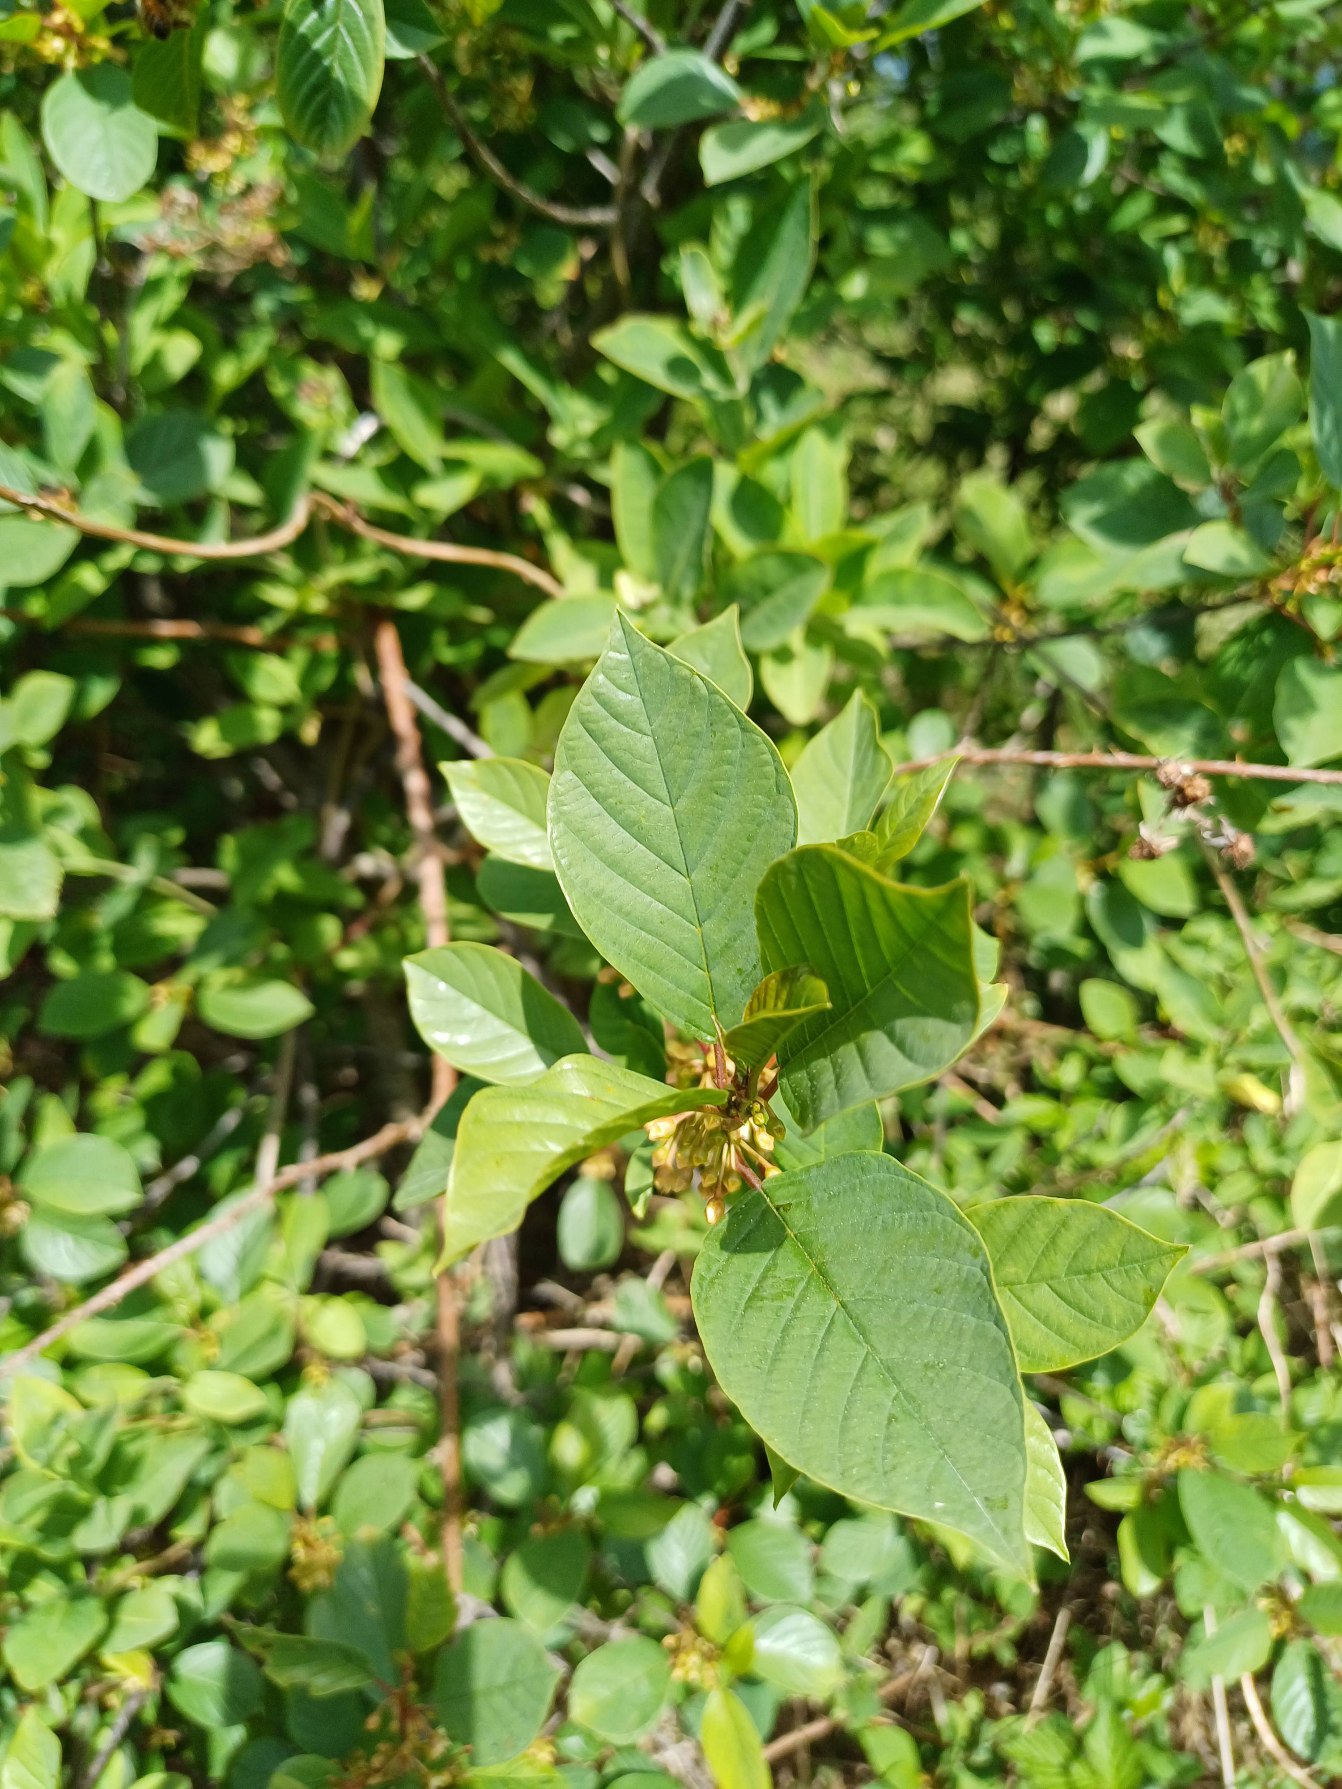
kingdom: Plantae
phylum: Tracheophyta
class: Magnoliopsida
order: Rosales
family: Rhamnaceae
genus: Frangula
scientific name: Frangula alnus
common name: Tørst
